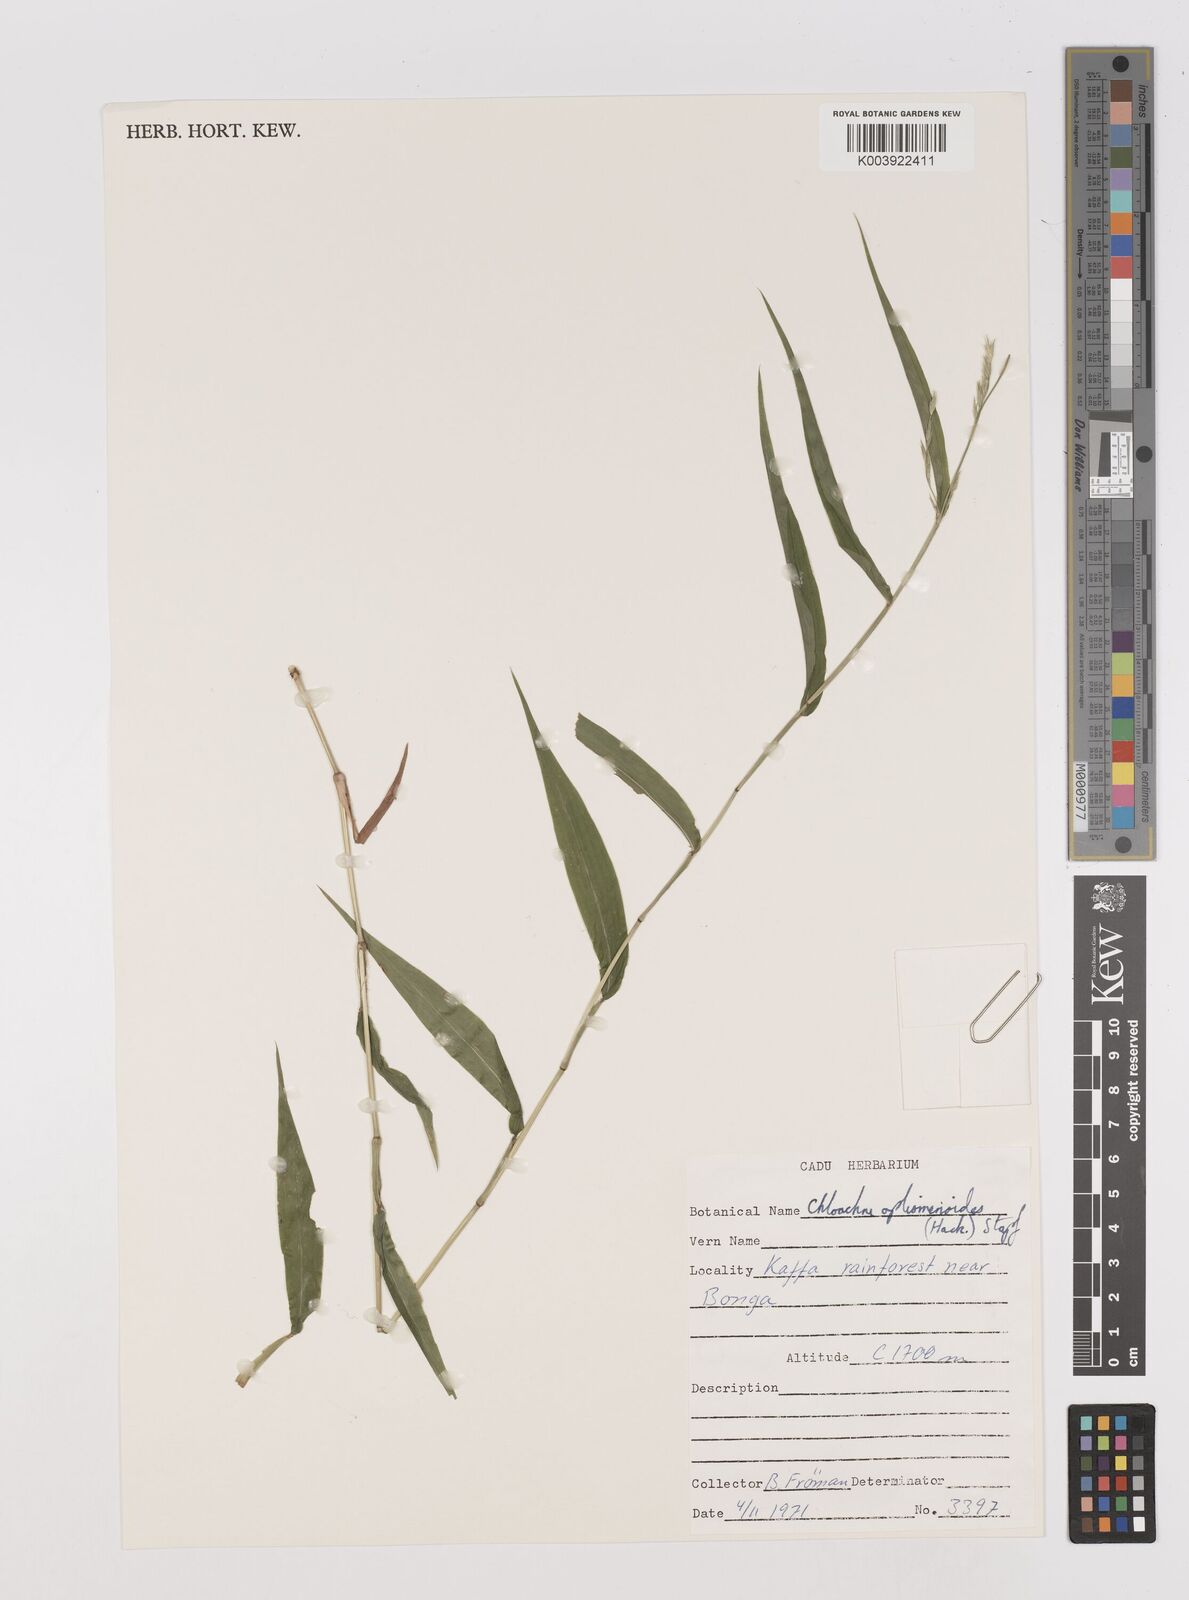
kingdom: Plantae
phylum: Tracheophyta
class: Liliopsida
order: Poales
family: Poaceae
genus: Poecilostachys
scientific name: Poecilostachys oplismenoides
